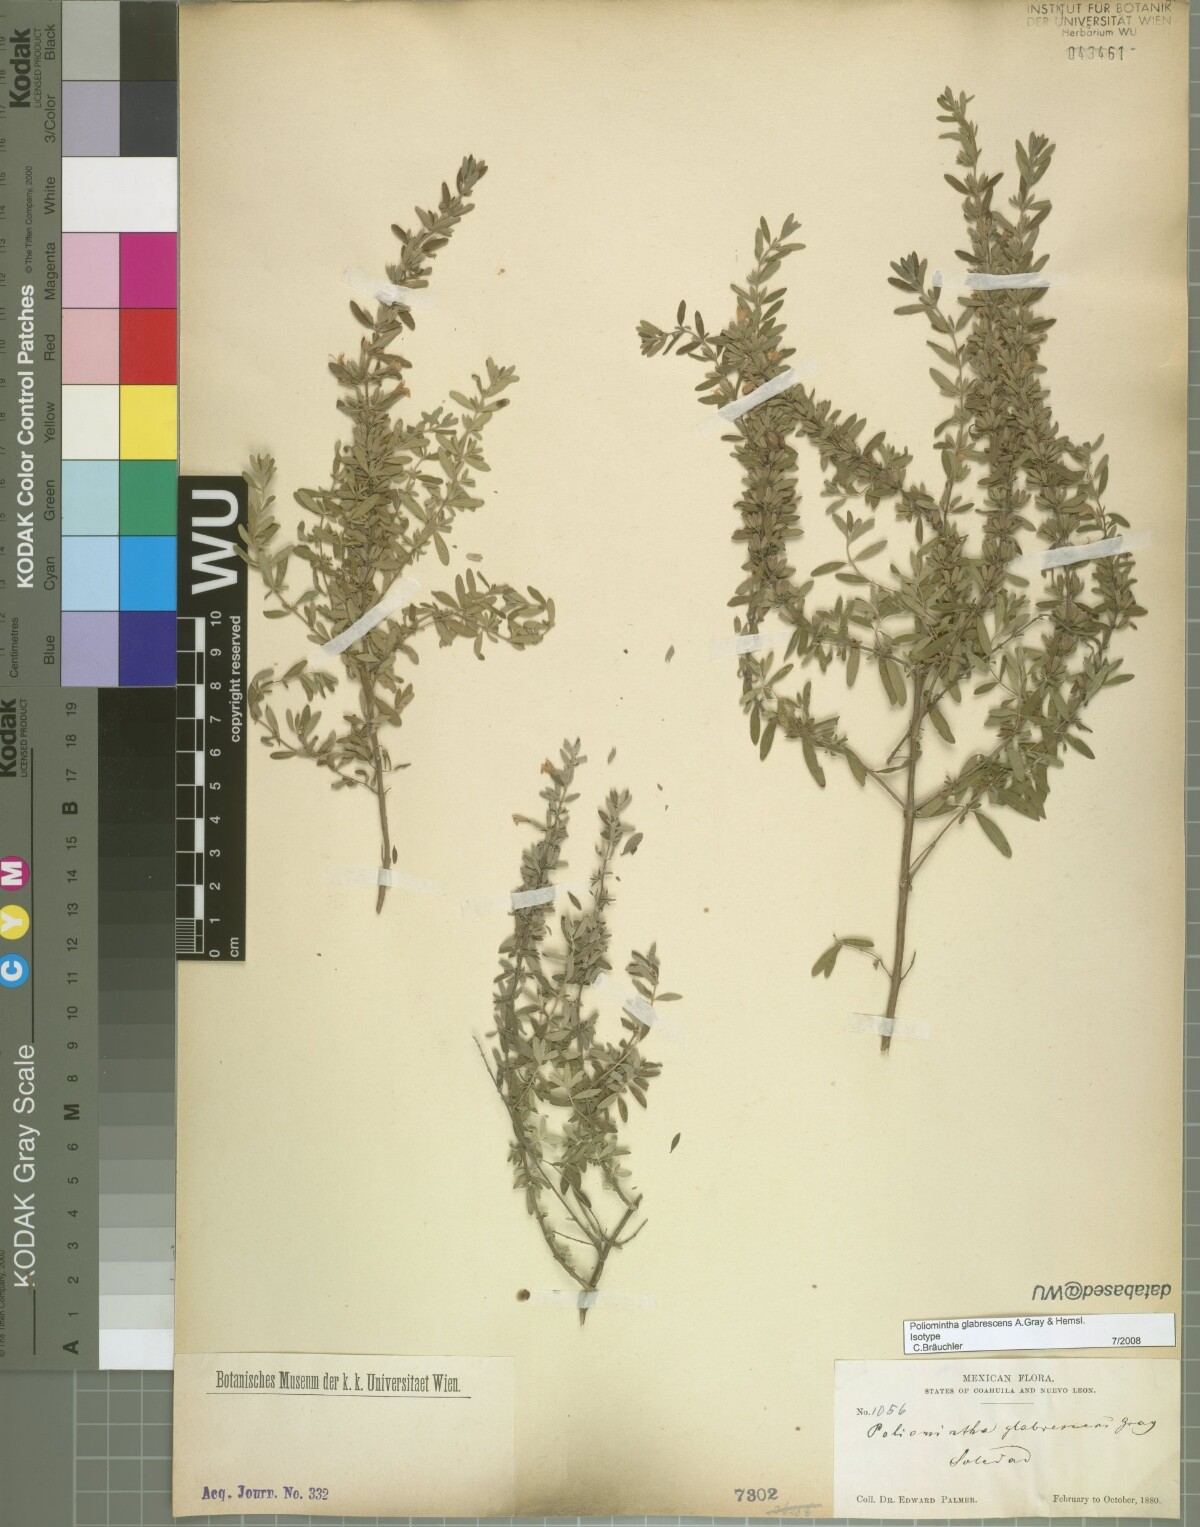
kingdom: Plantae
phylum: Tracheophyta
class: Magnoliopsida
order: Lamiales
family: Lamiaceae
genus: Poliomintha
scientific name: Poliomintha glabrescens
